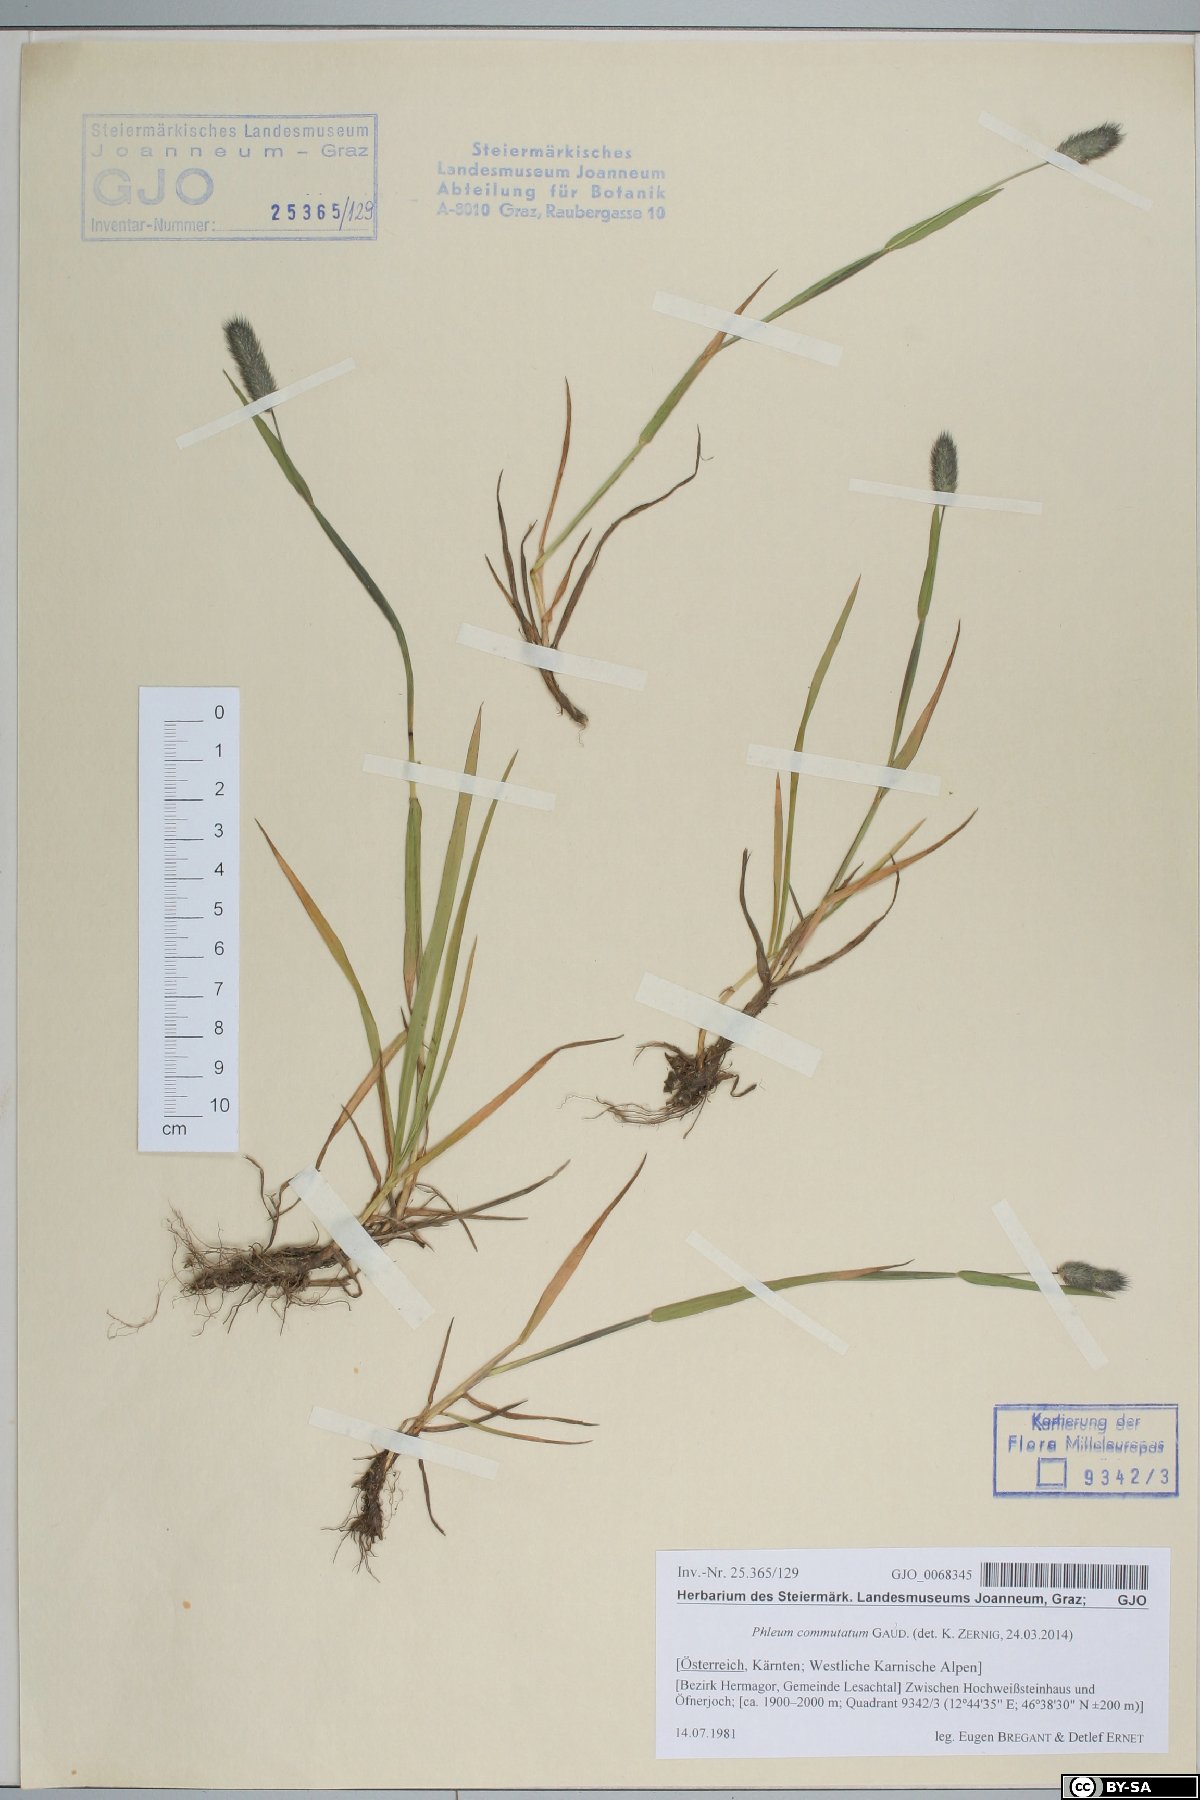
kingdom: Plantae
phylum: Tracheophyta
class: Liliopsida
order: Poales
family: Poaceae
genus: Phleum
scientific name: Phleum alpinum
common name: Alpine cat's-tail
